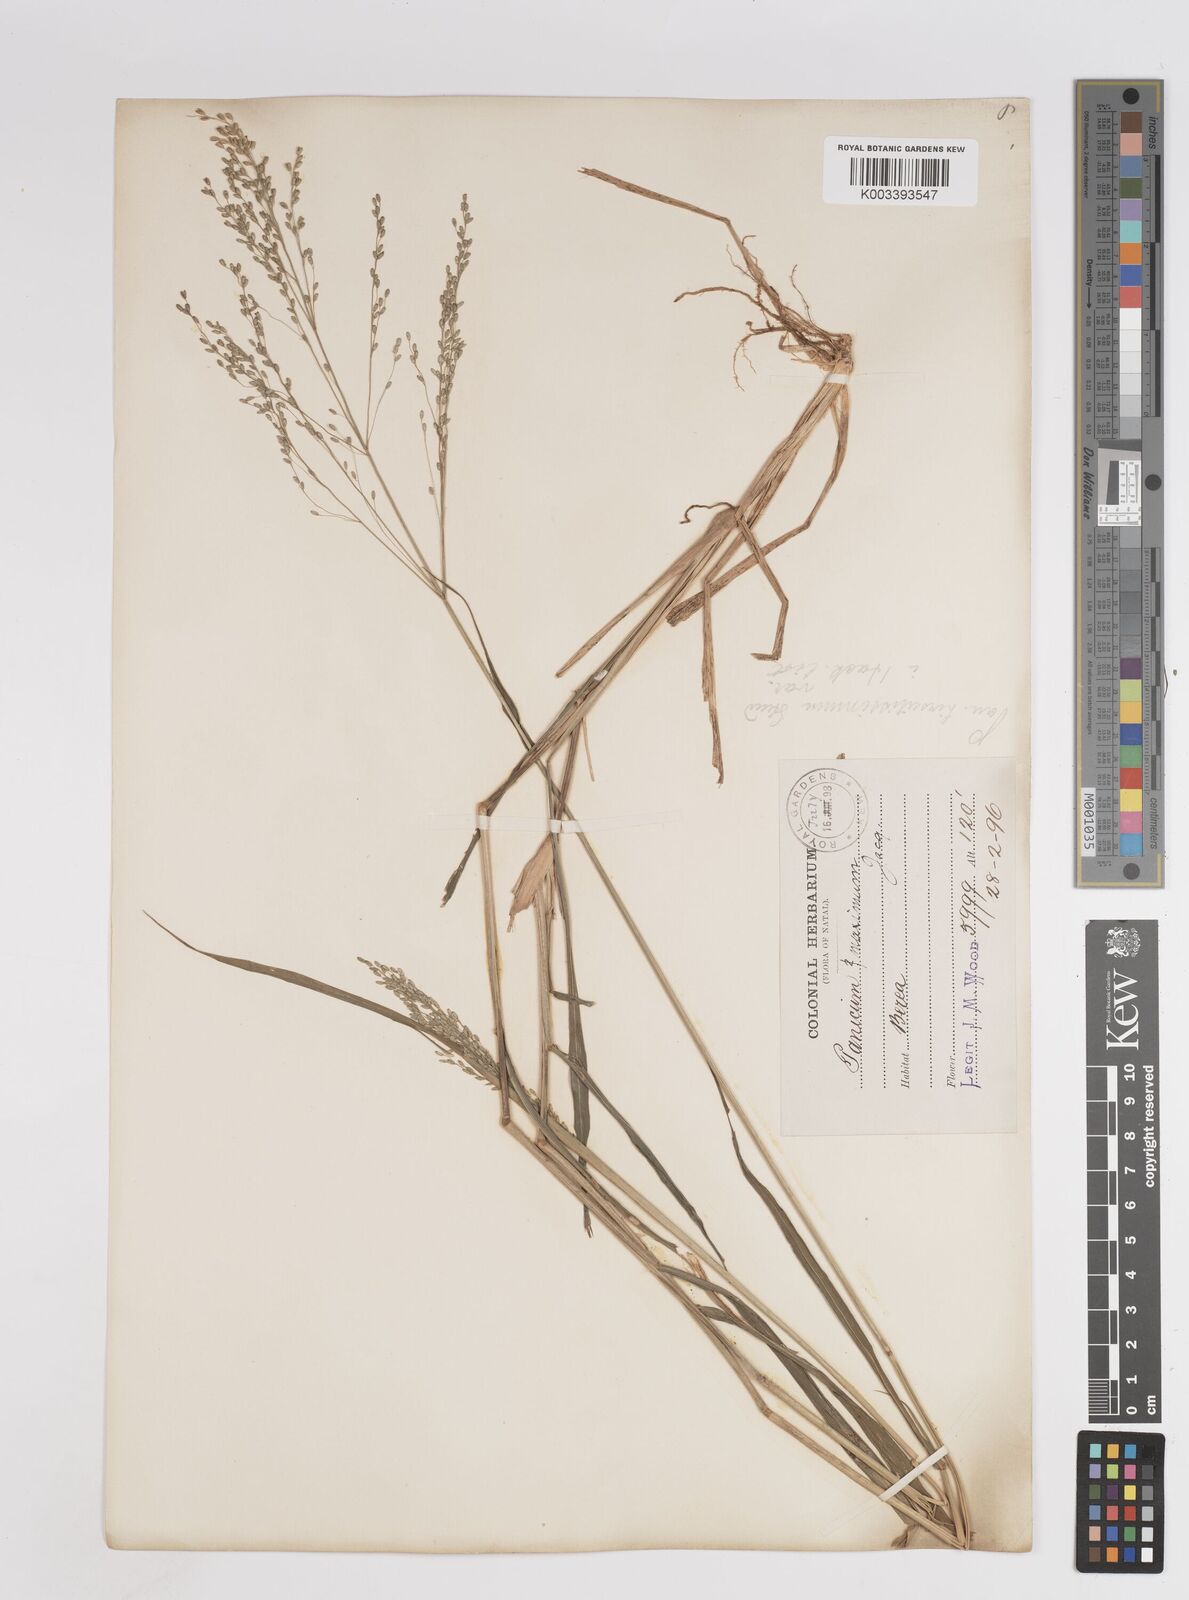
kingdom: Plantae
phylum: Tracheophyta
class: Liliopsida
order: Poales
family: Poaceae
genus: Megathyrsus
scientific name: Megathyrsus maximus
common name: Guineagrass
